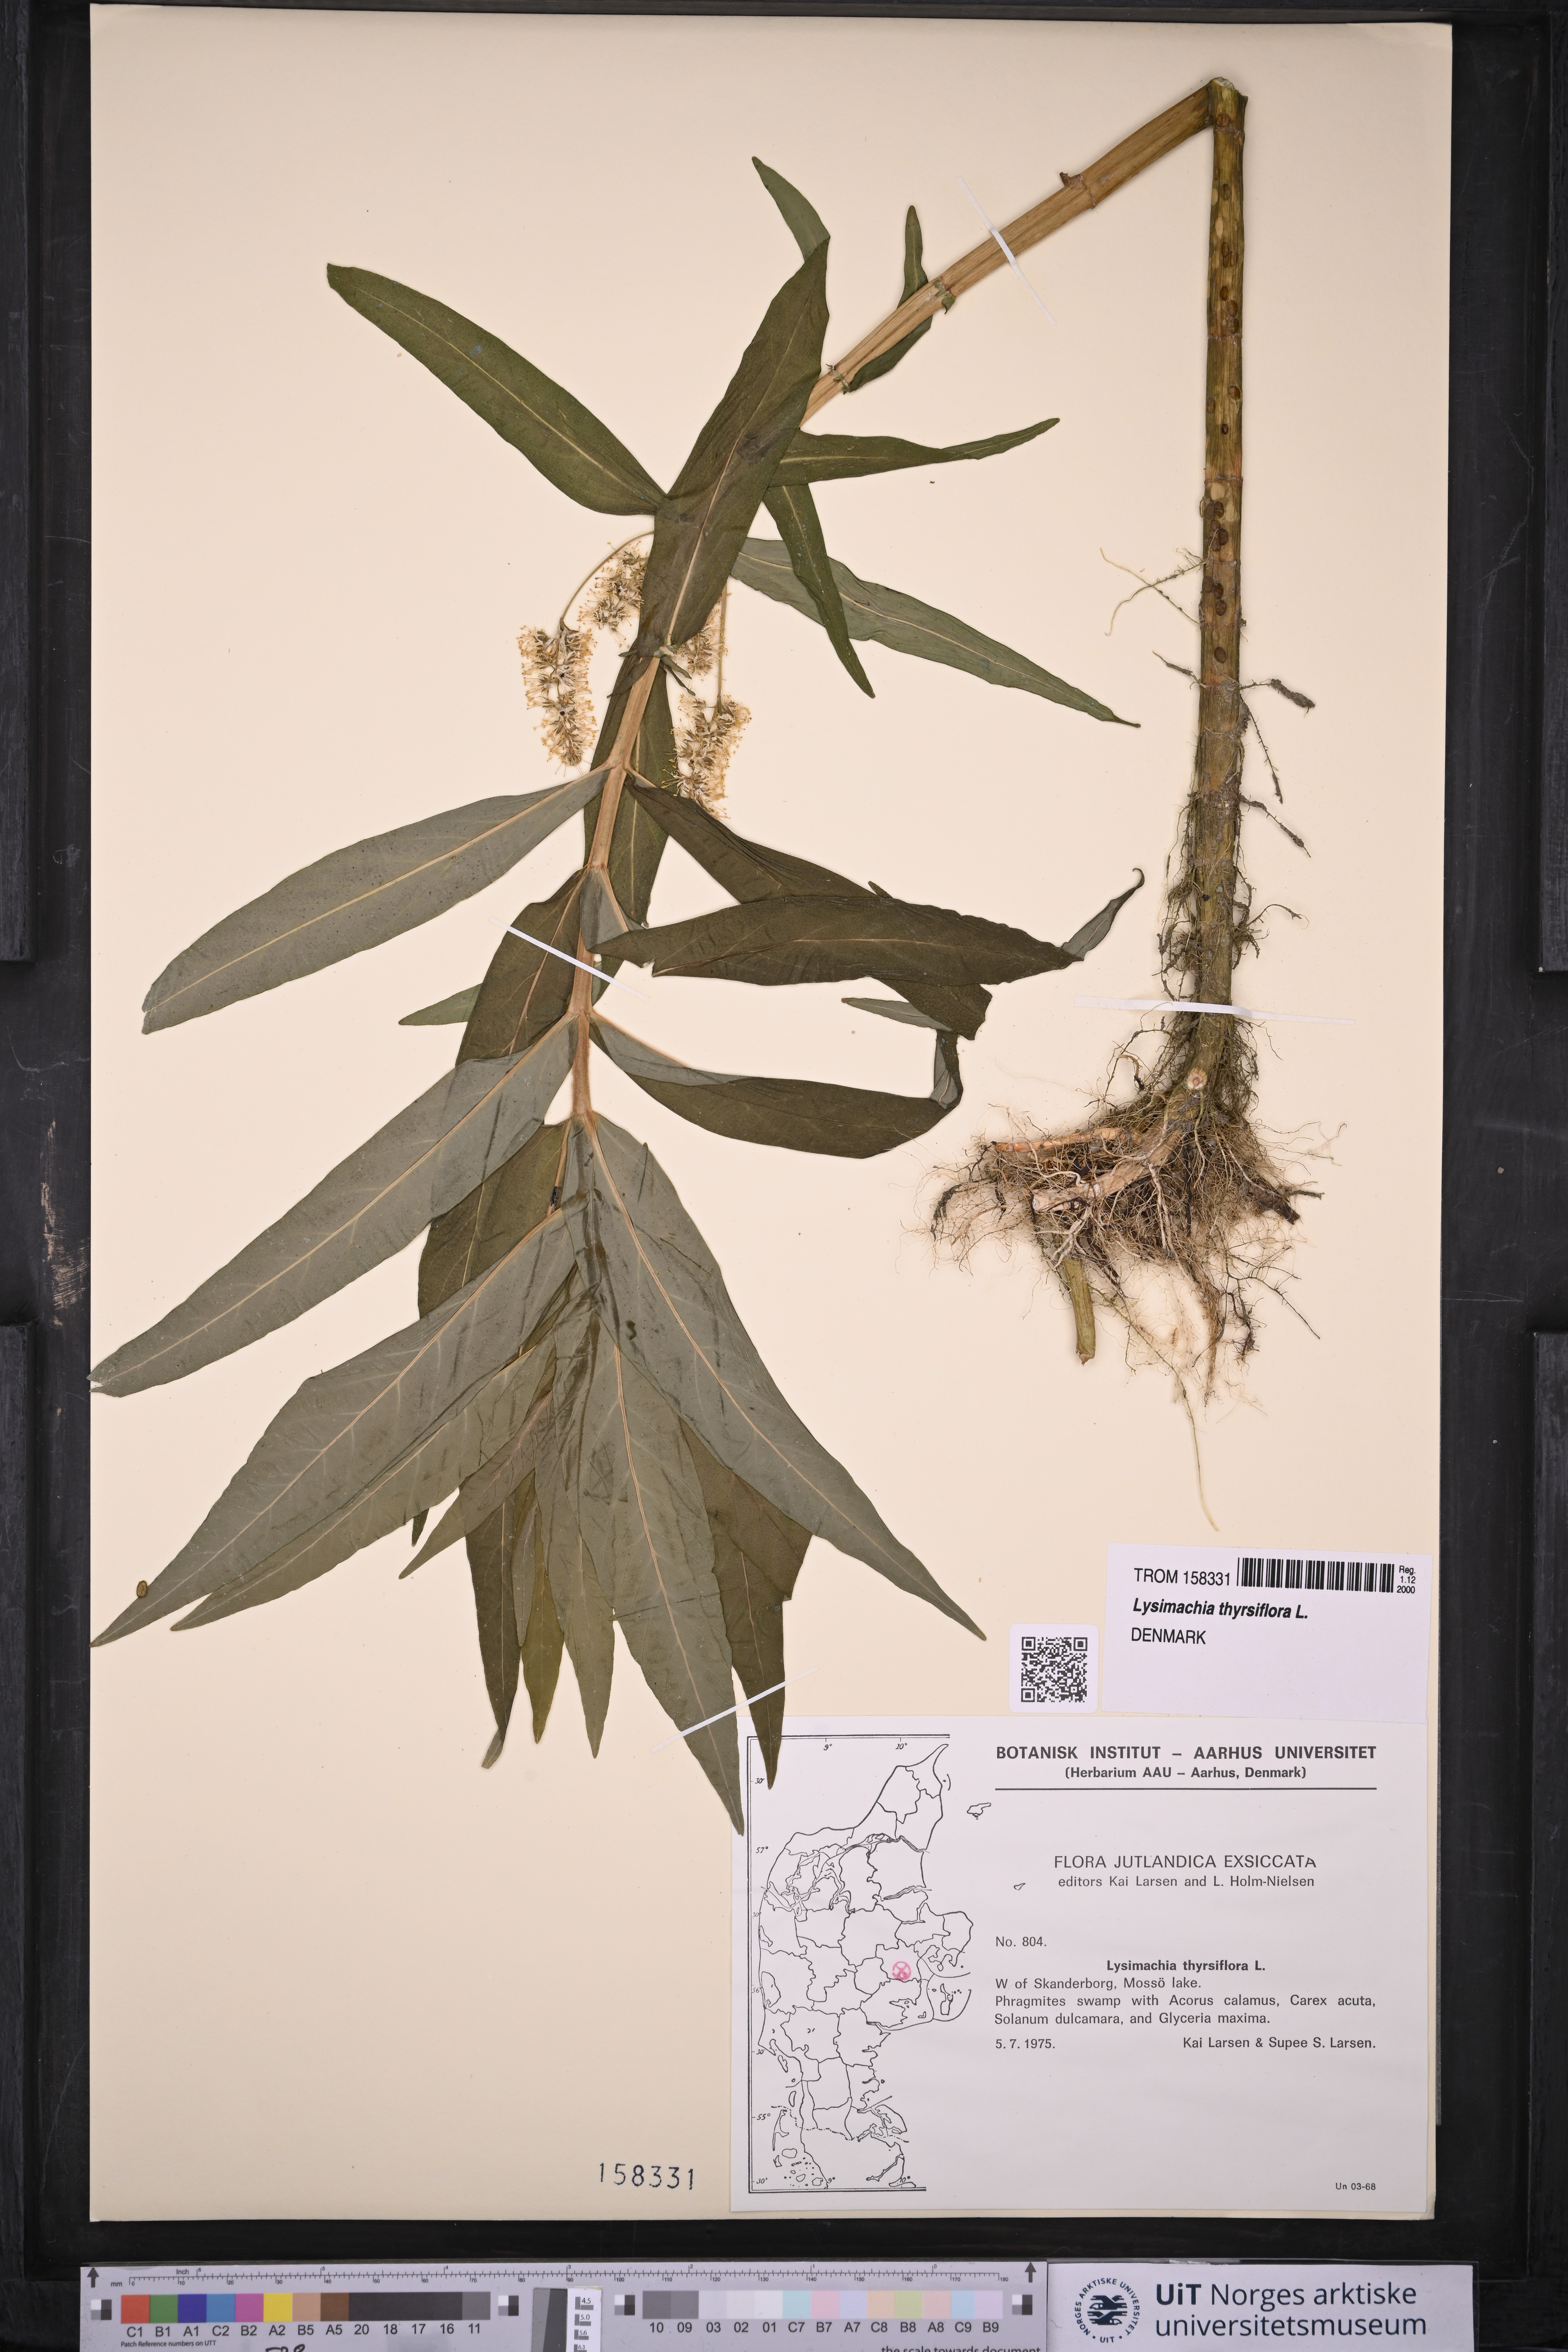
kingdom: Plantae
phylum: Tracheophyta
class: Magnoliopsida
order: Ericales
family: Primulaceae
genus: Lysimachia
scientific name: Lysimachia thyrsiflora
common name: Tufted loosestrife
